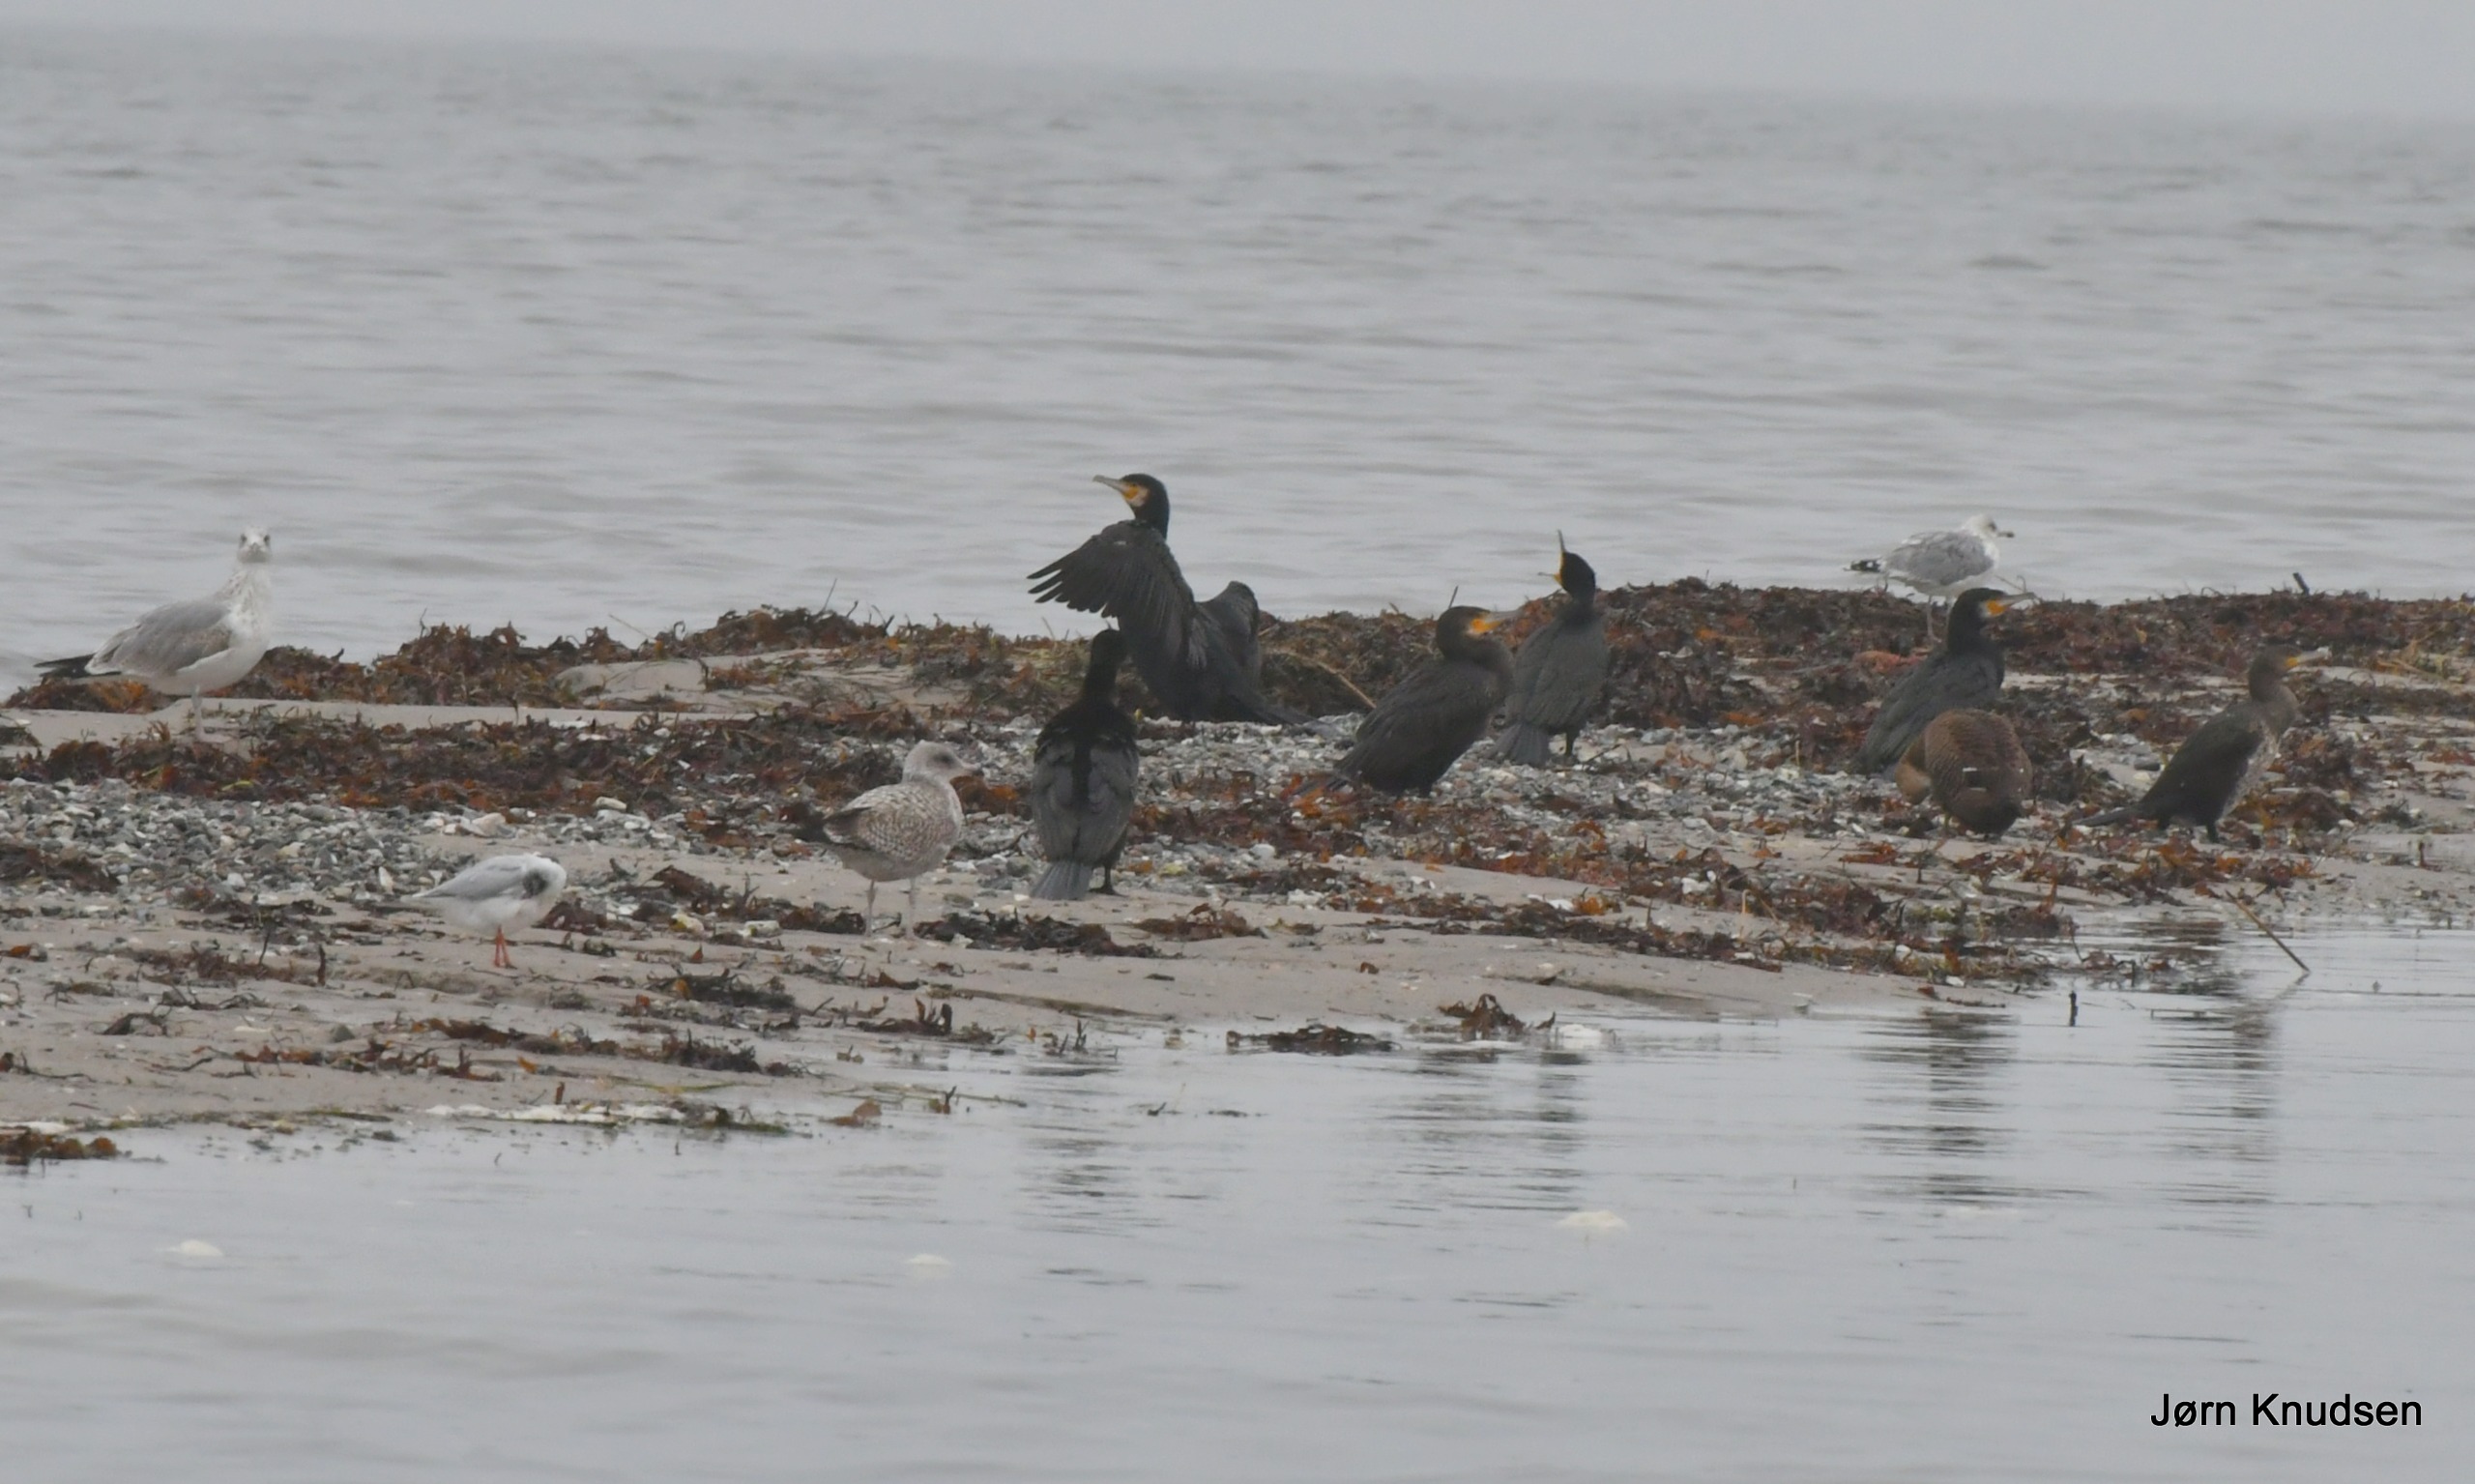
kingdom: Animalia
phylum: Chordata
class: Aves
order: Suliformes
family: Phalacrocoracidae
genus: Phalacrocorax
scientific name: Phalacrocorax carbo
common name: Skarv
